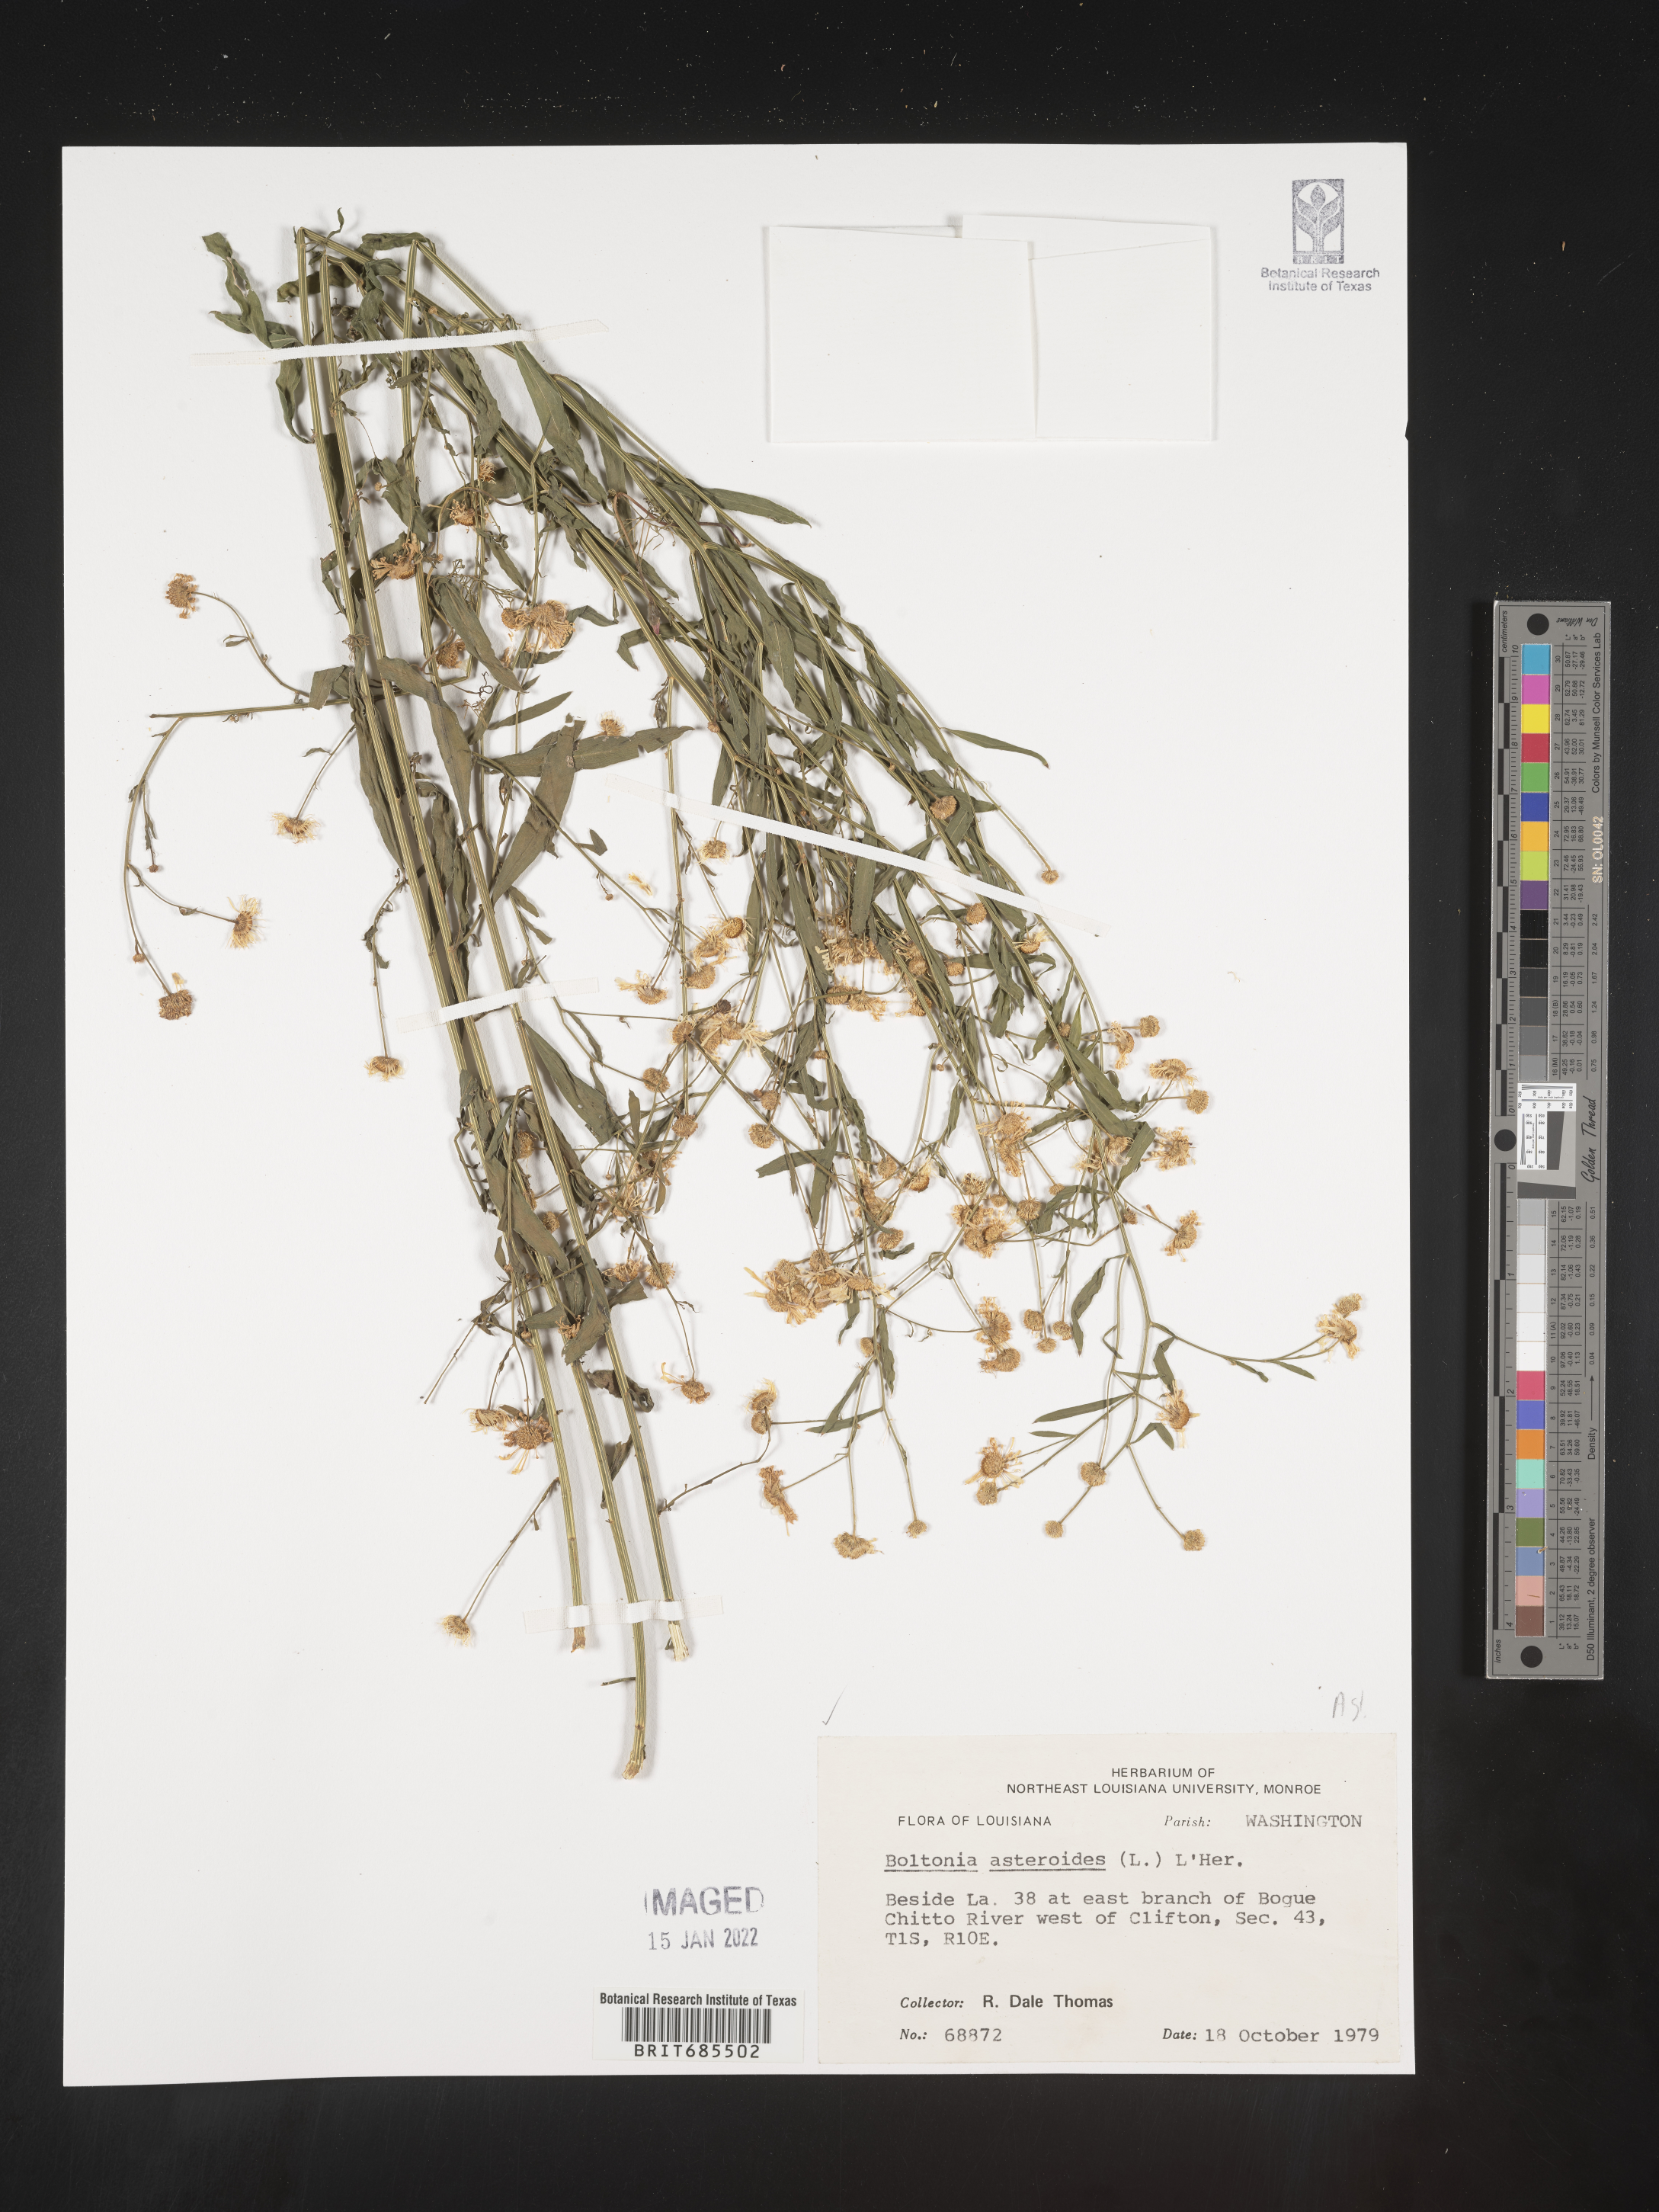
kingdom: Plantae
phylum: Tracheophyta
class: Magnoliopsida
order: Asterales
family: Asteraceae
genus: Boltonia
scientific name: Boltonia asteroides
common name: False chamomile
